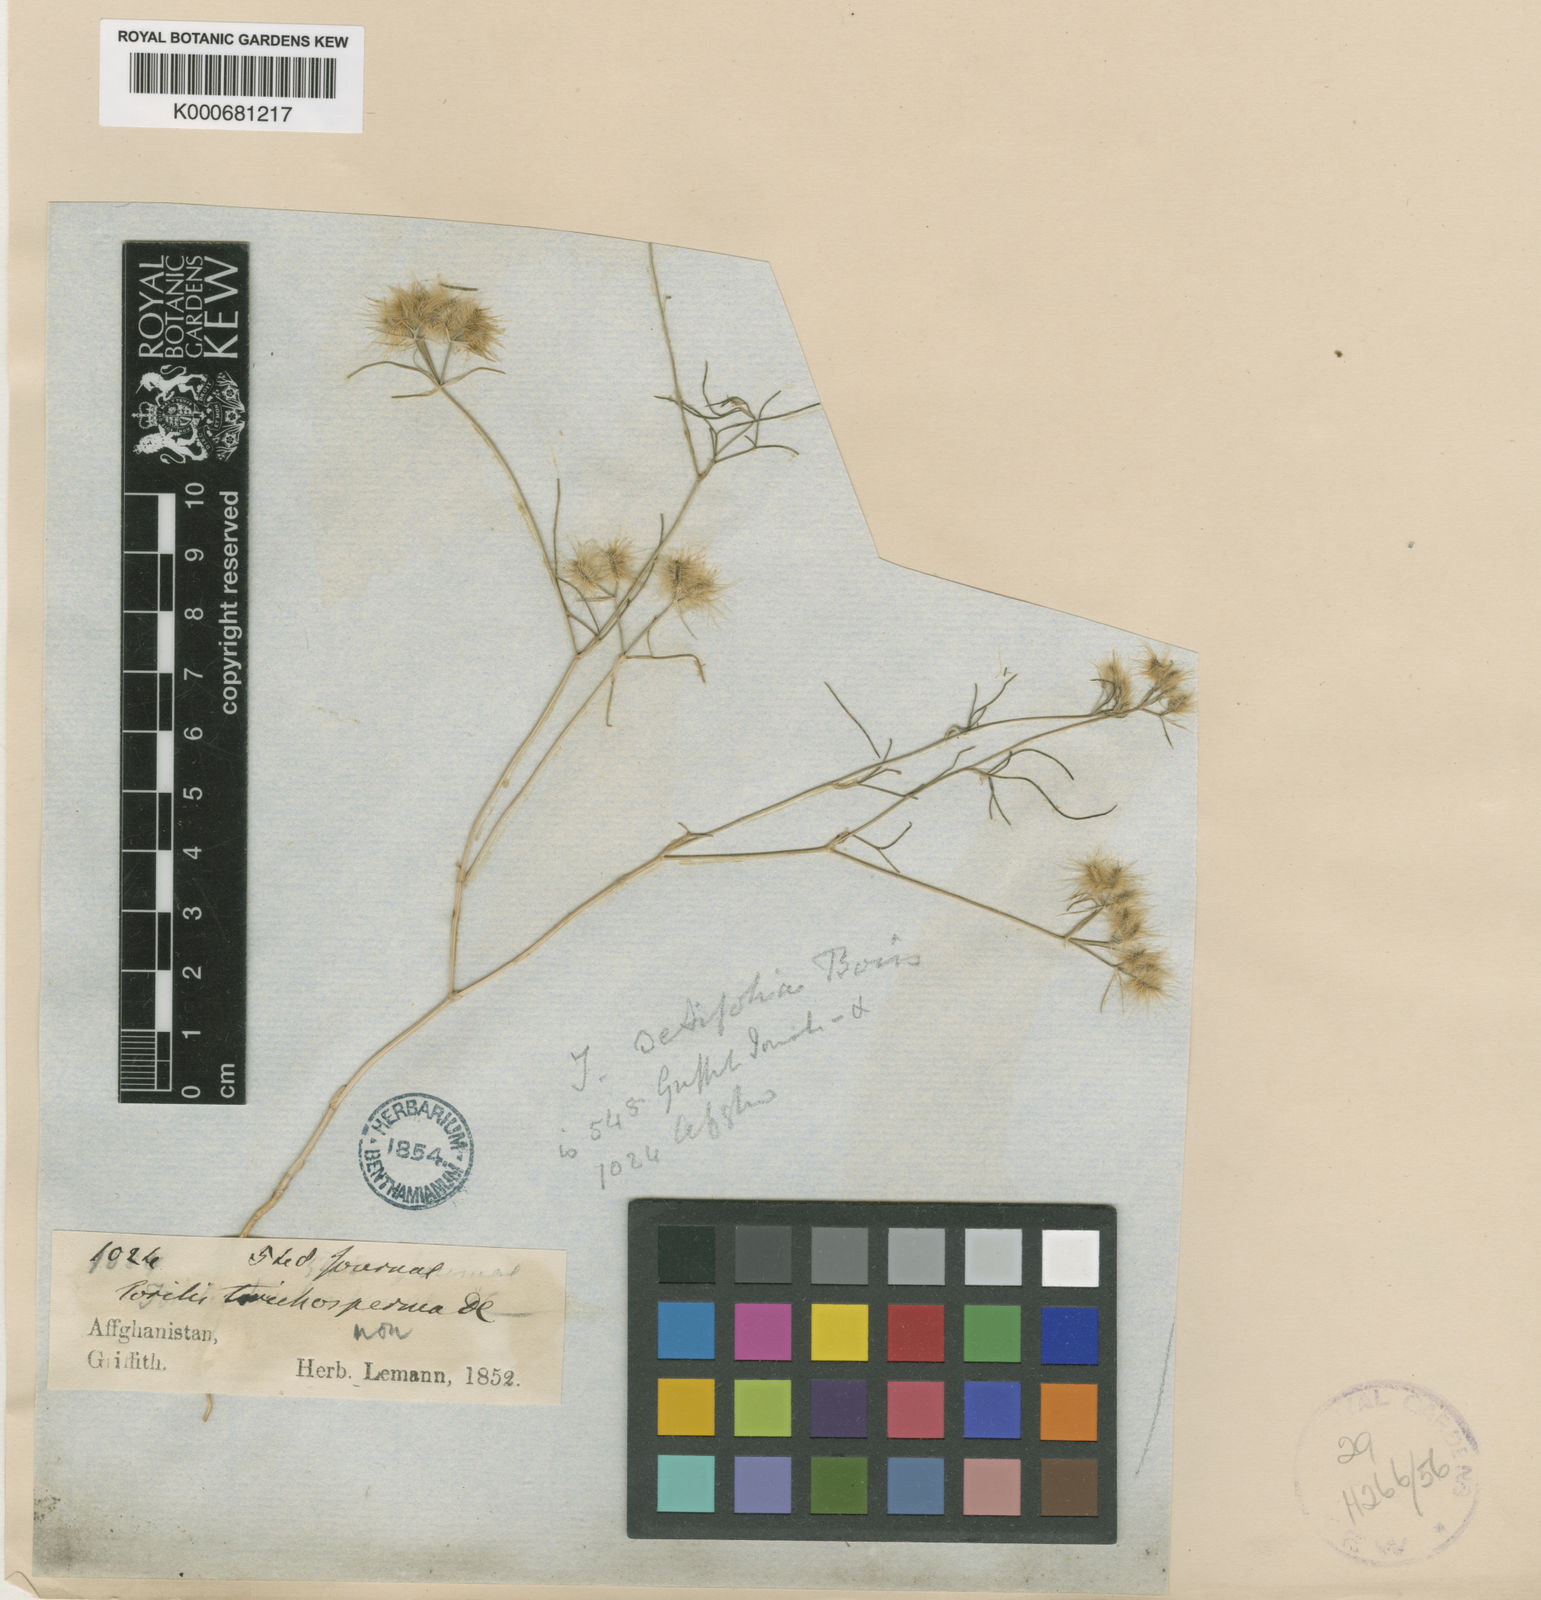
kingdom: Plantae
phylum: Tracheophyta
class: Magnoliopsida
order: Apiales
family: Apiaceae
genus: Cuminum
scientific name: Cuminum setifolium
